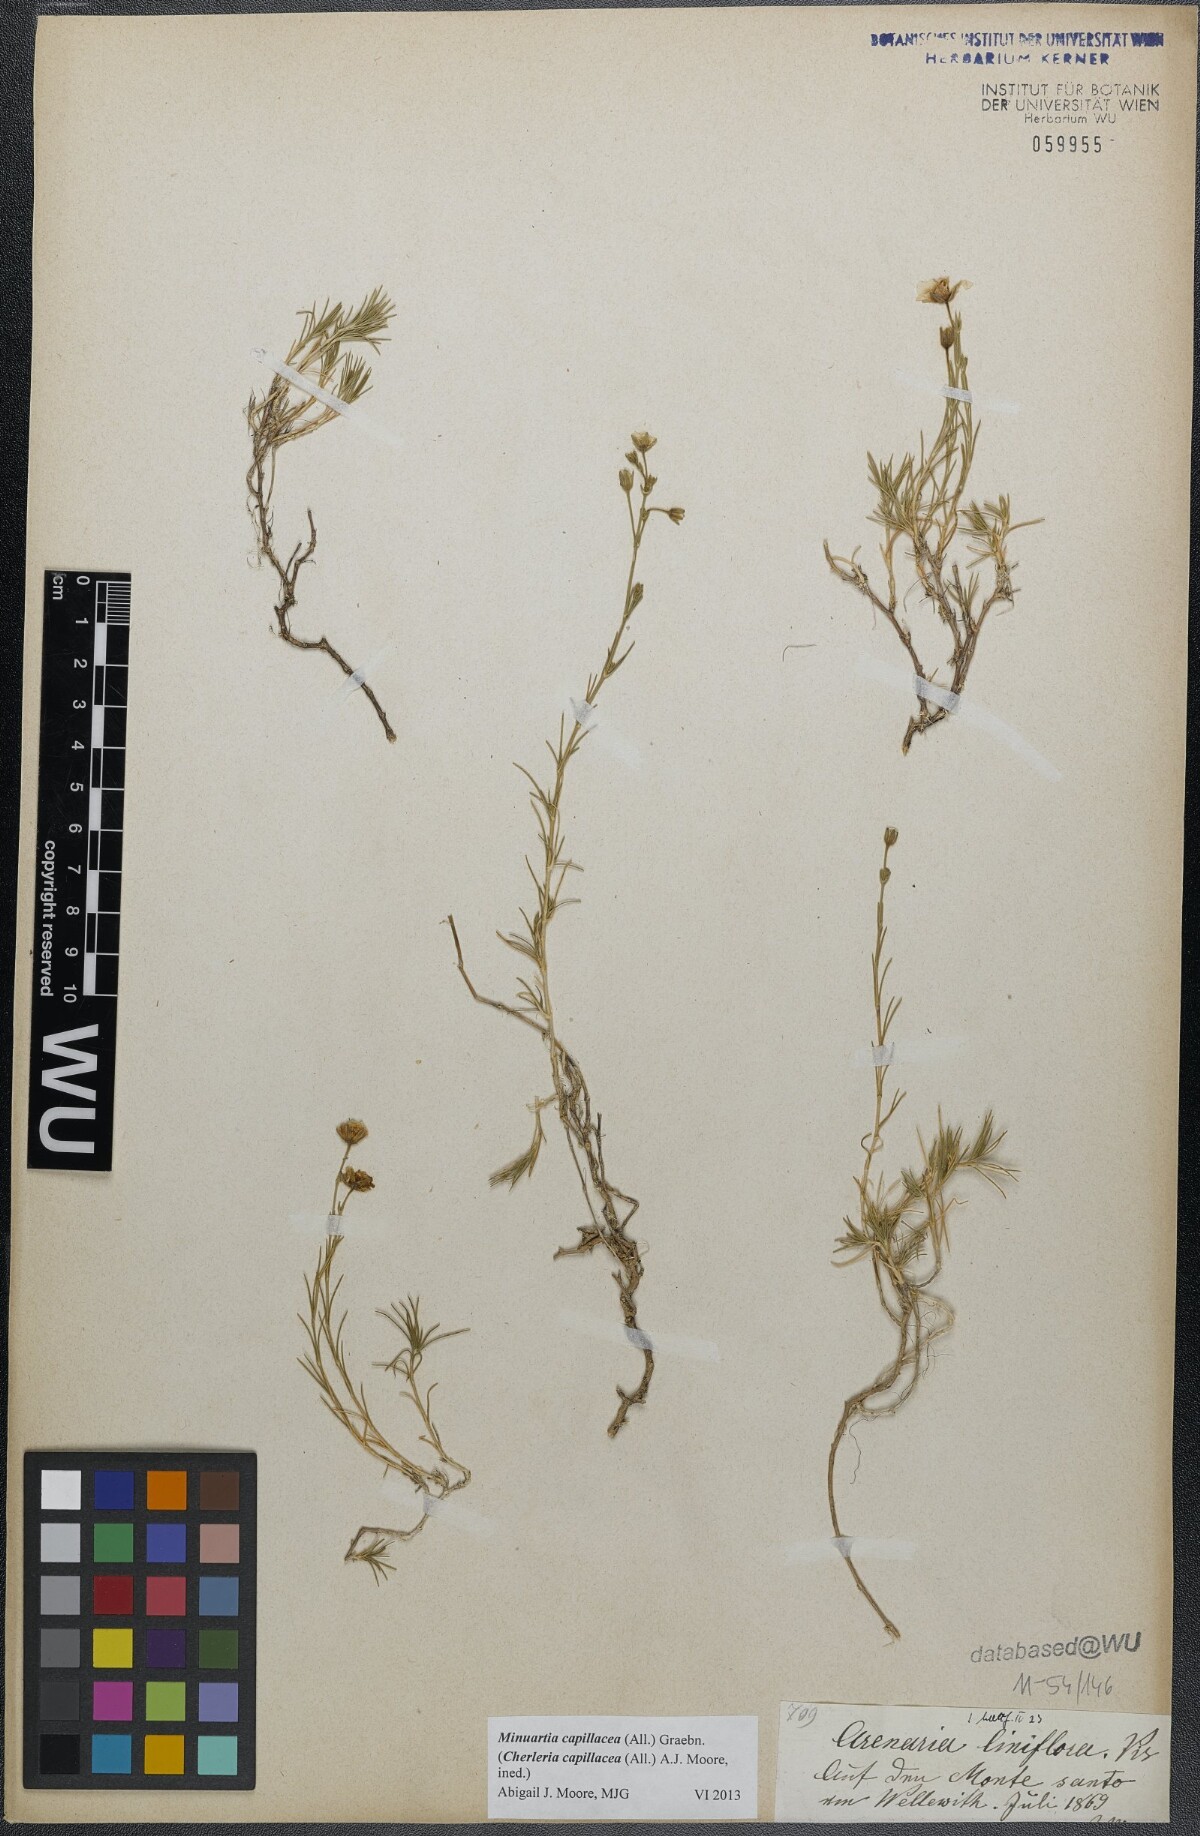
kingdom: Plantae
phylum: Tracheophyta
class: Magnoliopsida
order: Caryophyllales
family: Caryophyllaceae
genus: Cherleria
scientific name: Cherleria capillacea
